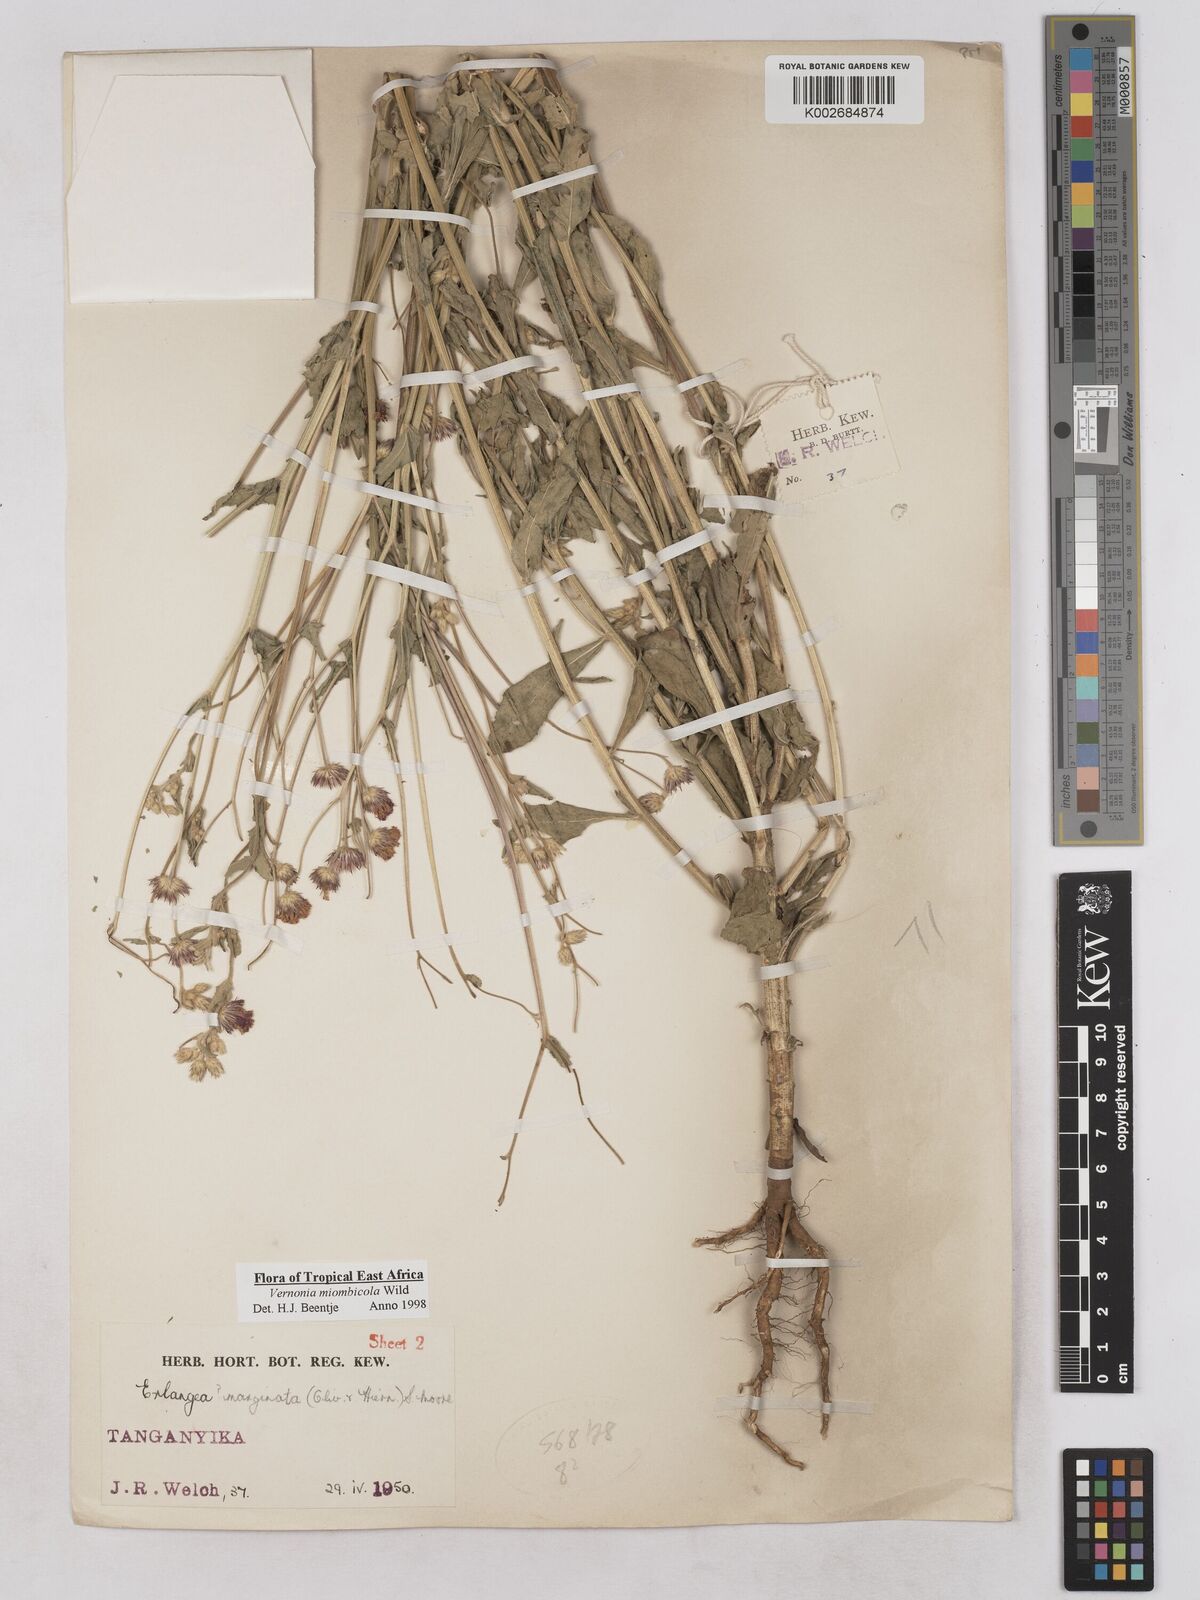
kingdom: Plantae
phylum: Tracheophyta
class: Magnoliopsida
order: Asterales
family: Asteraceae
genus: Vernonia
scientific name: Vernonia miombicola
